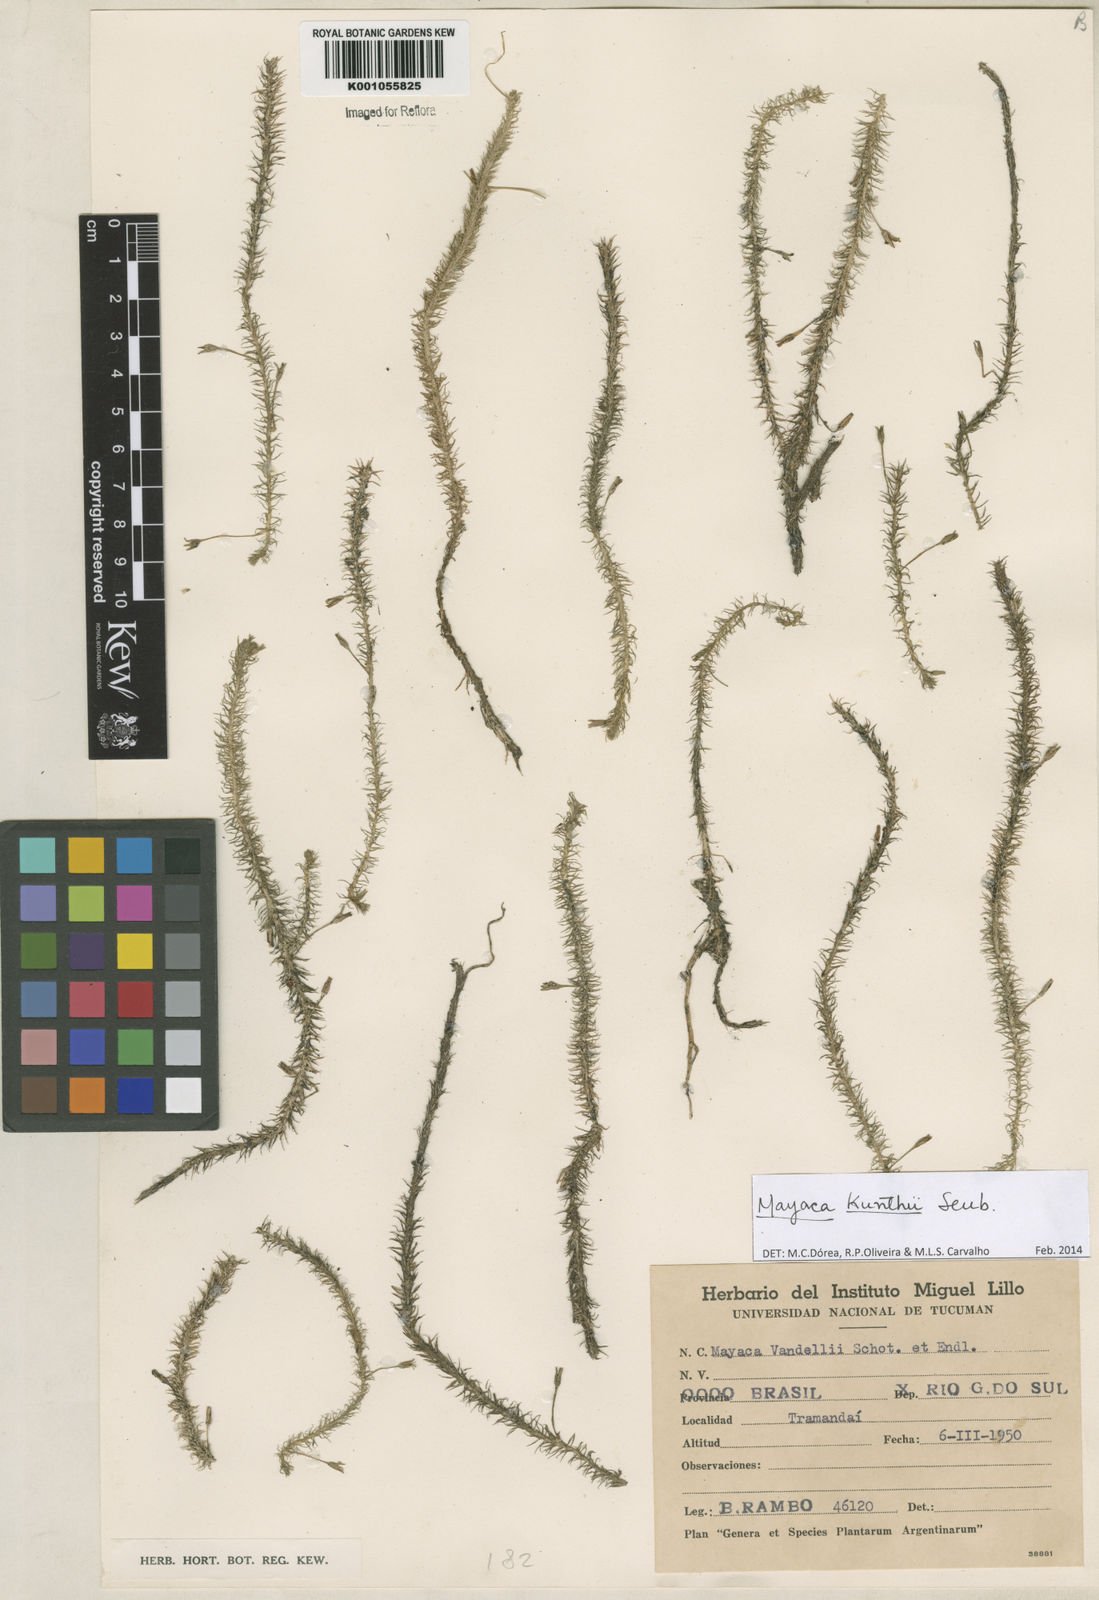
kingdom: Plantae
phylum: Tracheophyta
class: Liliopsida
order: Poales
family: Mayacaceae
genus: Mayaca
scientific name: Mayaca kunthii
